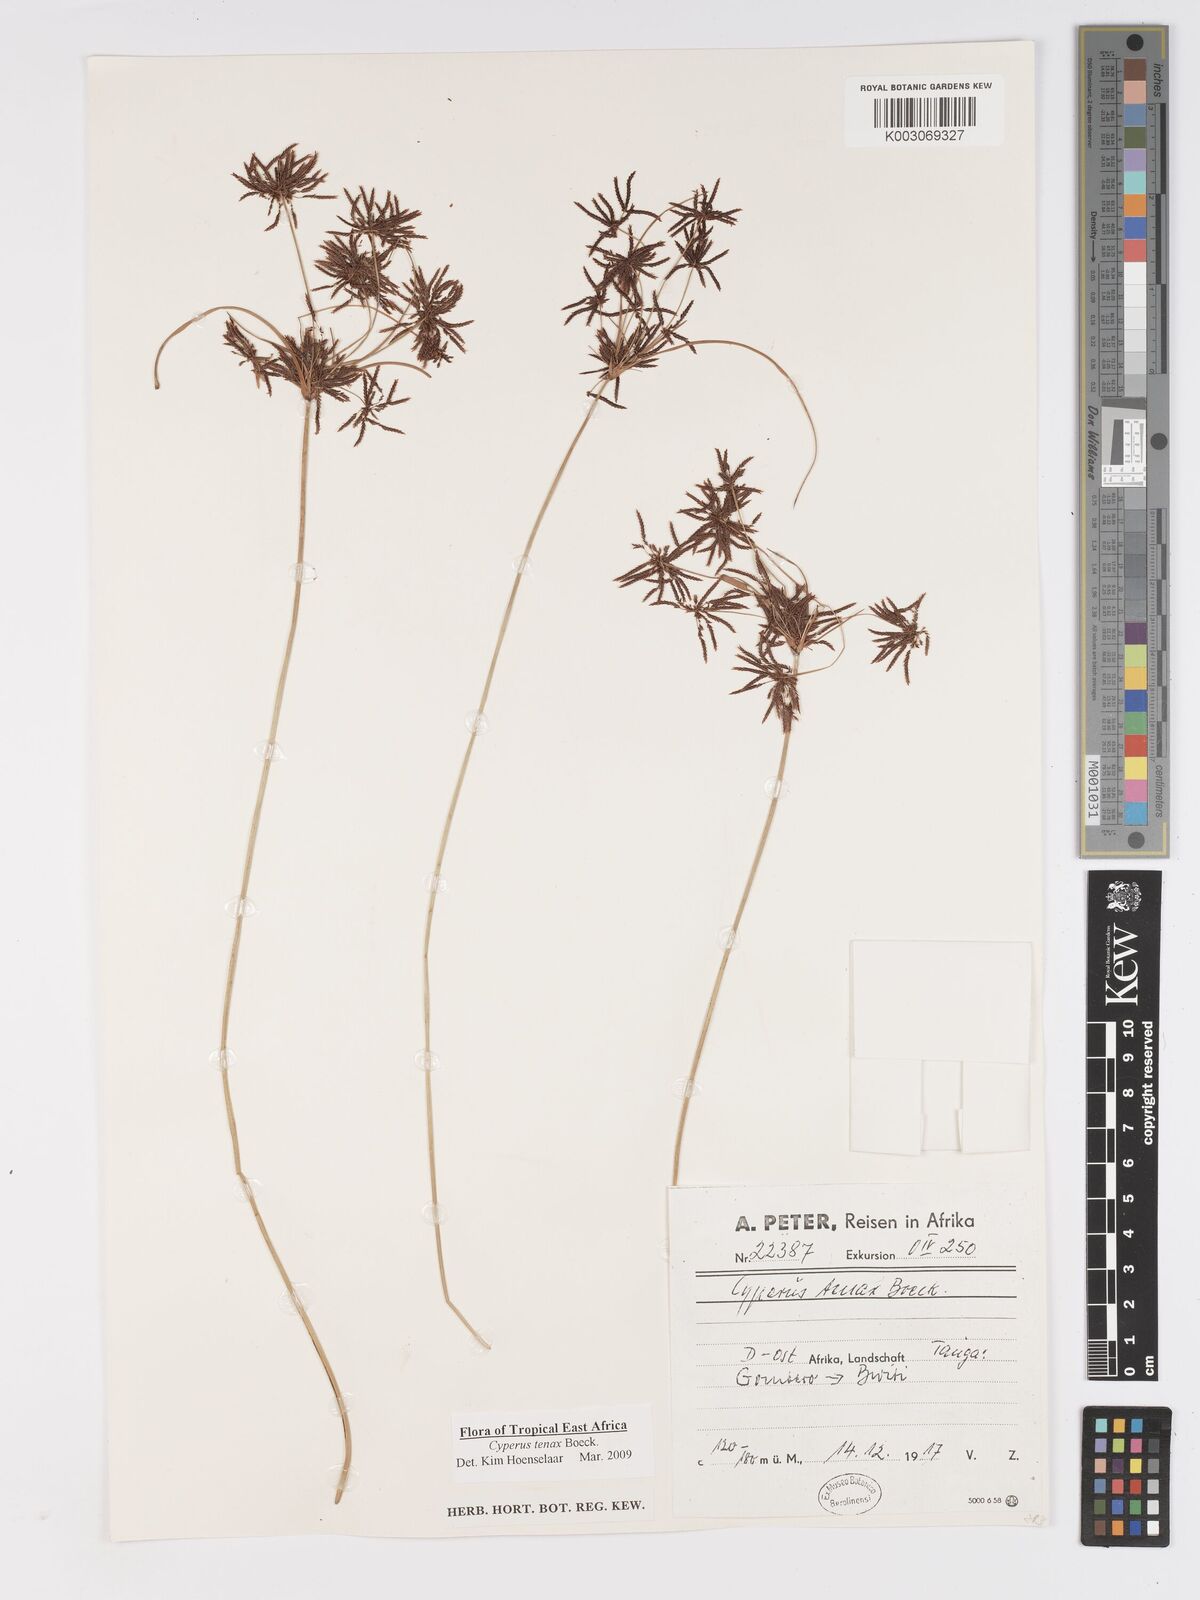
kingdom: Plantae
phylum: Tracheophyta
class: Liliopsida
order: Poales
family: Cyperaceae
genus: Cyperus
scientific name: Cyperus tenax
